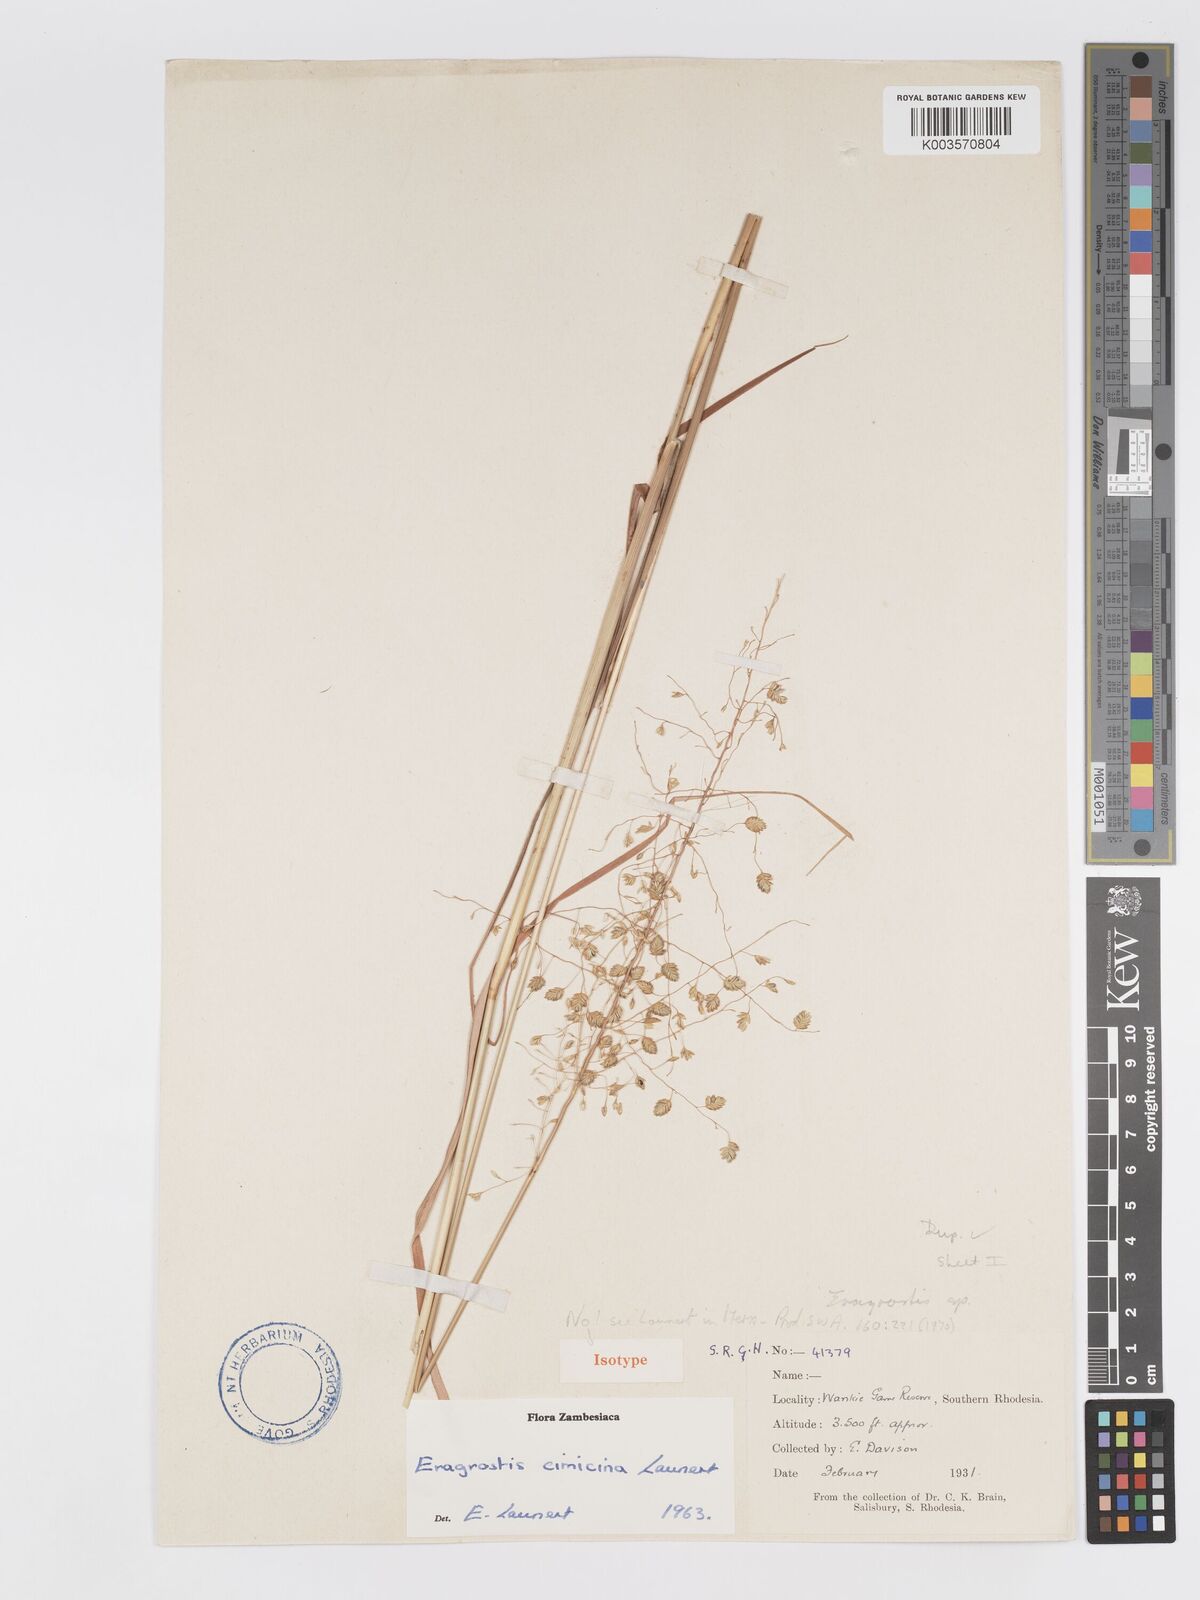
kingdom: Plantae
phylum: Tracheophyta
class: Liliopsida
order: Poales
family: Poaceae
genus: Eragrostis
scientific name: Eragrostis cimicina
